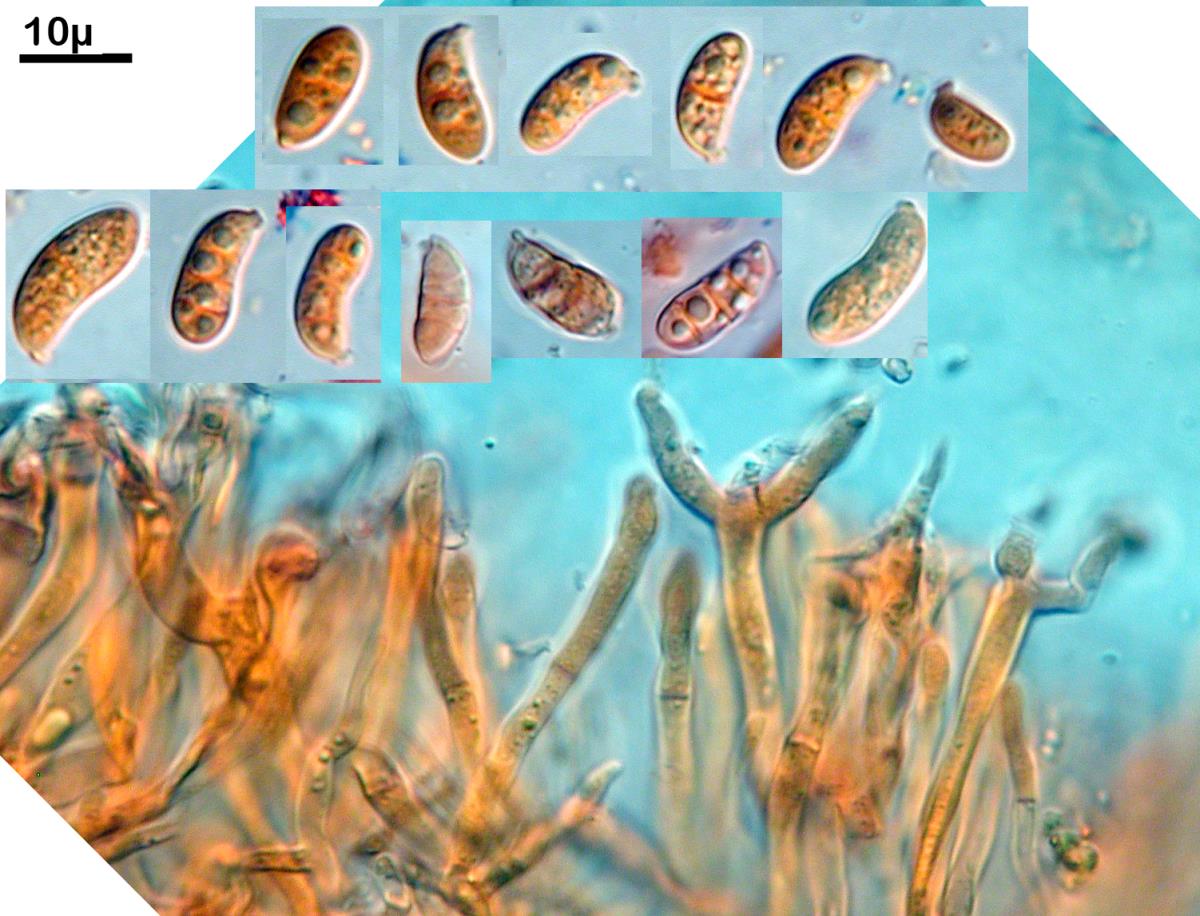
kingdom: Fungi
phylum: Basidiomycota
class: Dacrymycetes
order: Dacrymycetales
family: Dacrymycetaceae
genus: Dacrymyces
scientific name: Dacrymyces lacrymalis
